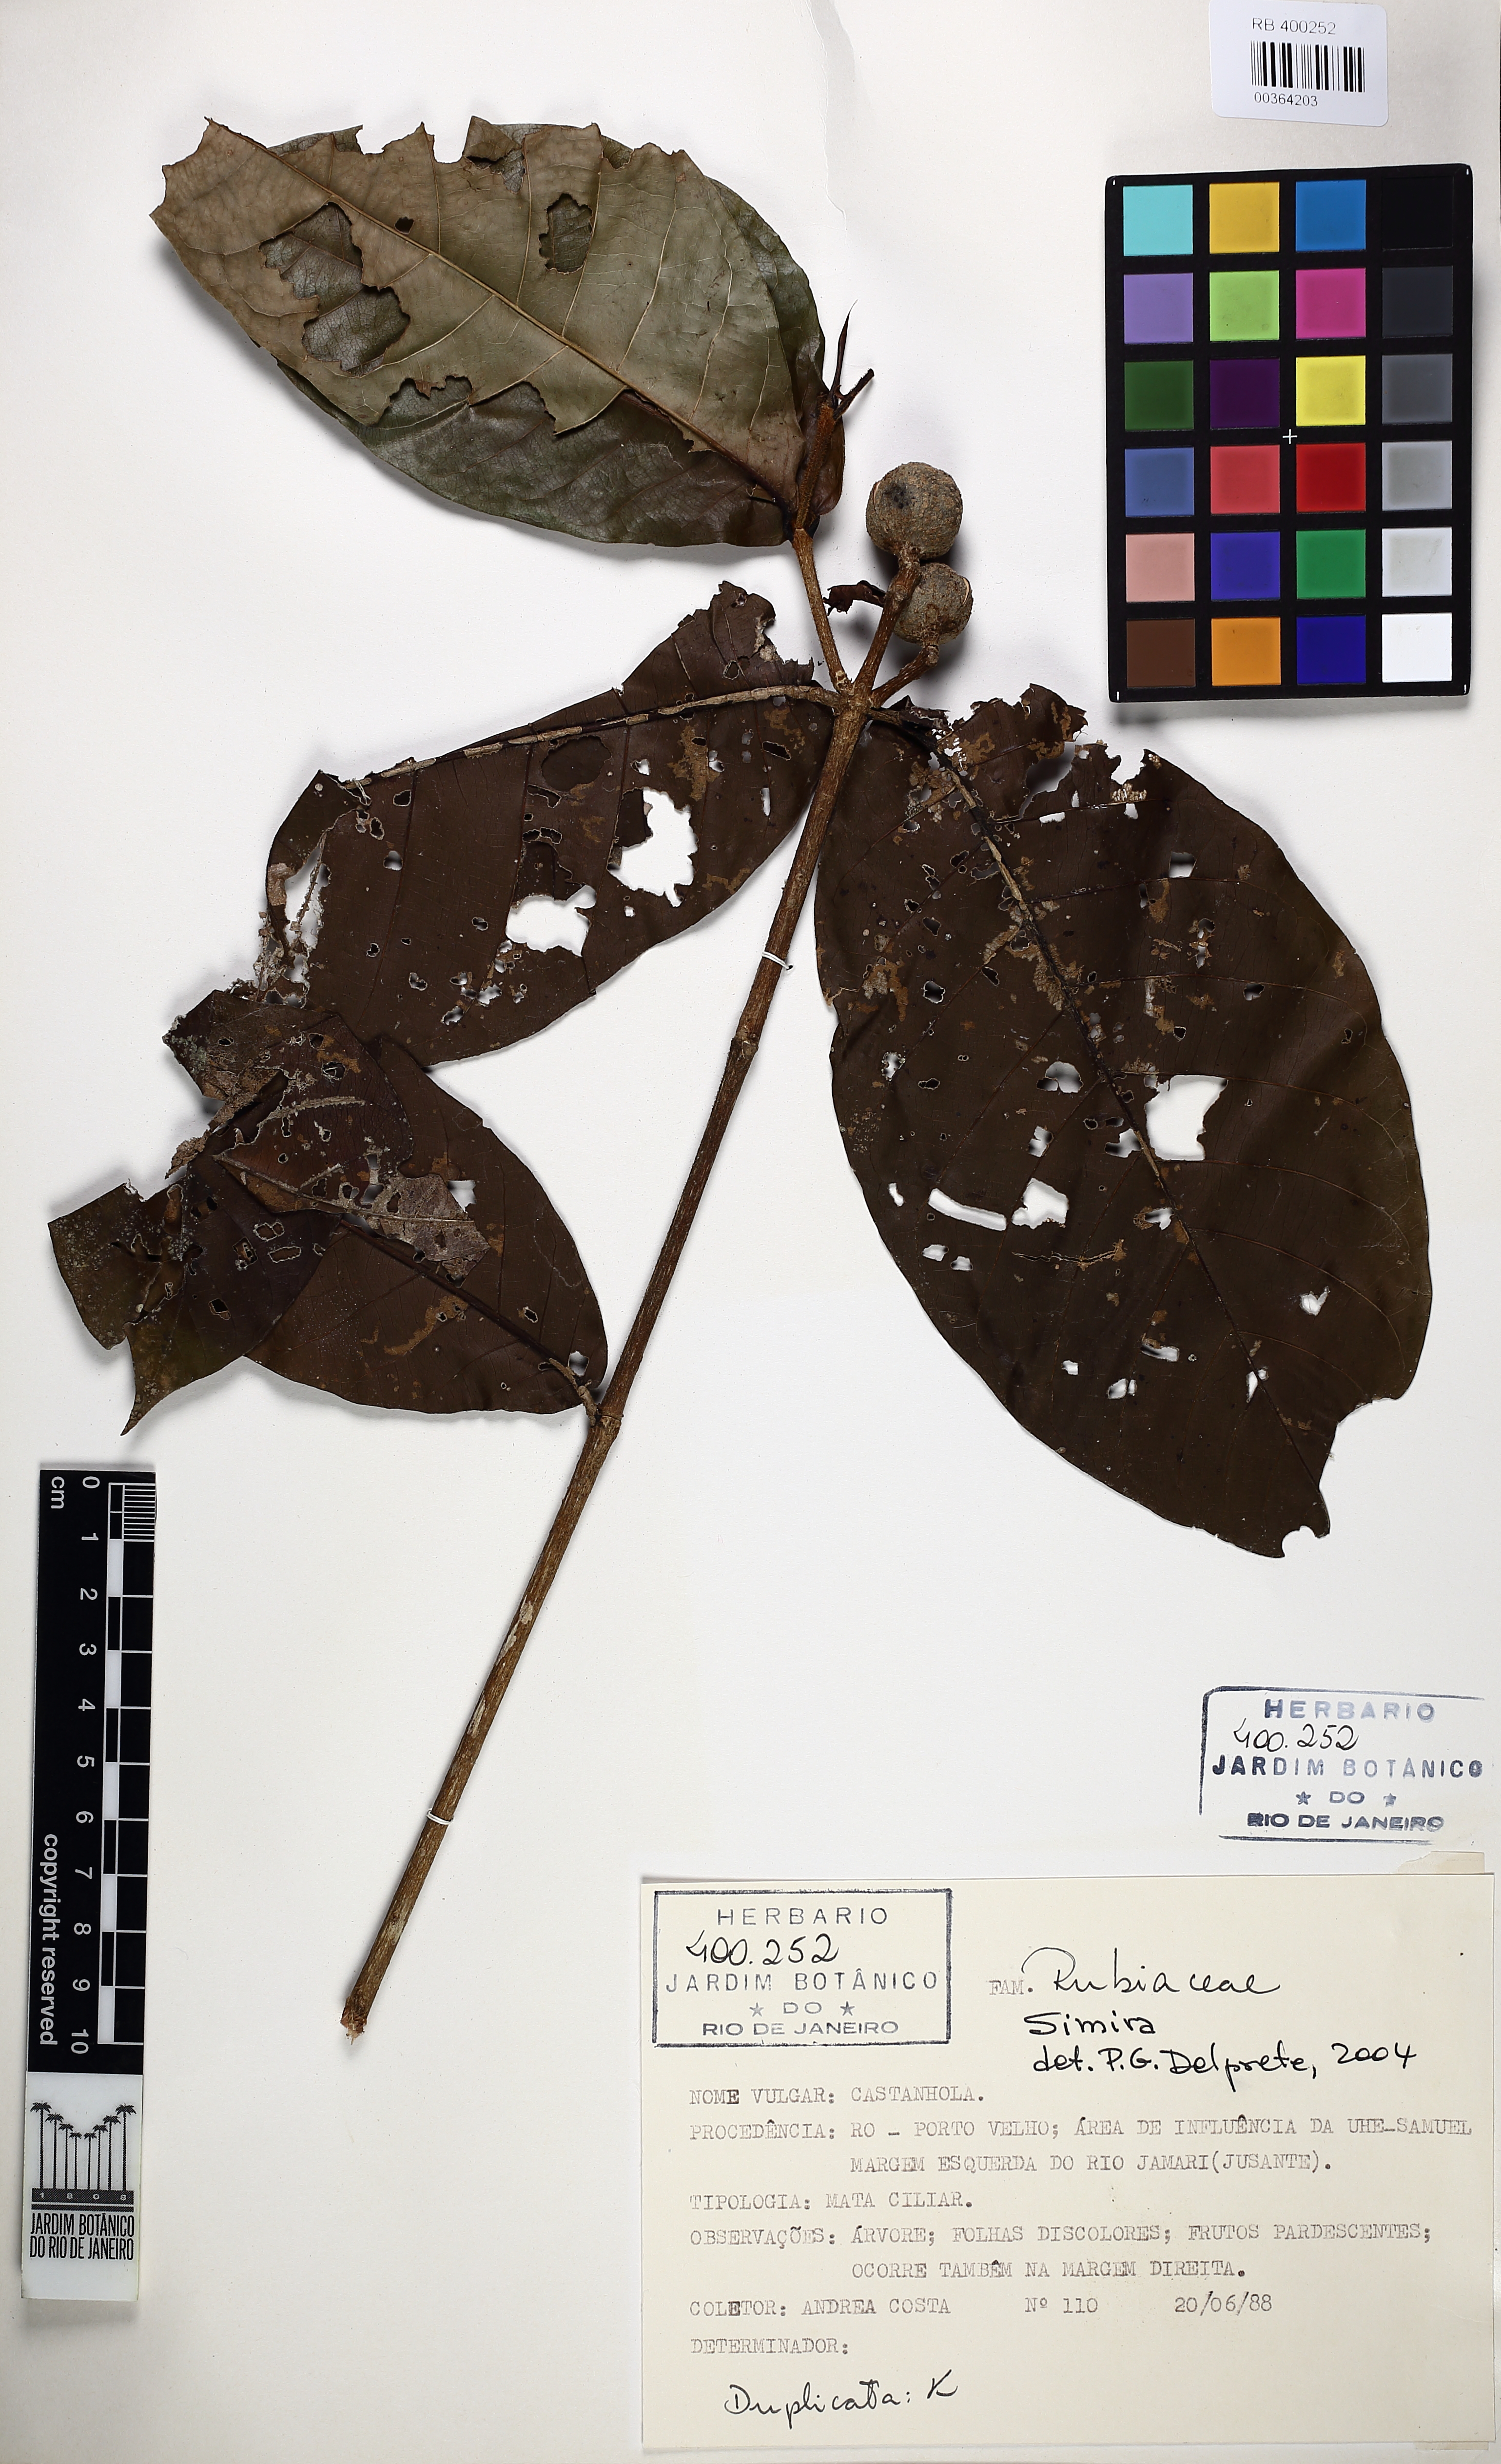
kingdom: Plantae
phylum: Tracheophyta
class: Magnoliopsida
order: Gentianales
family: Rubiaceae
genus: Simira
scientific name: Simira rubescens
